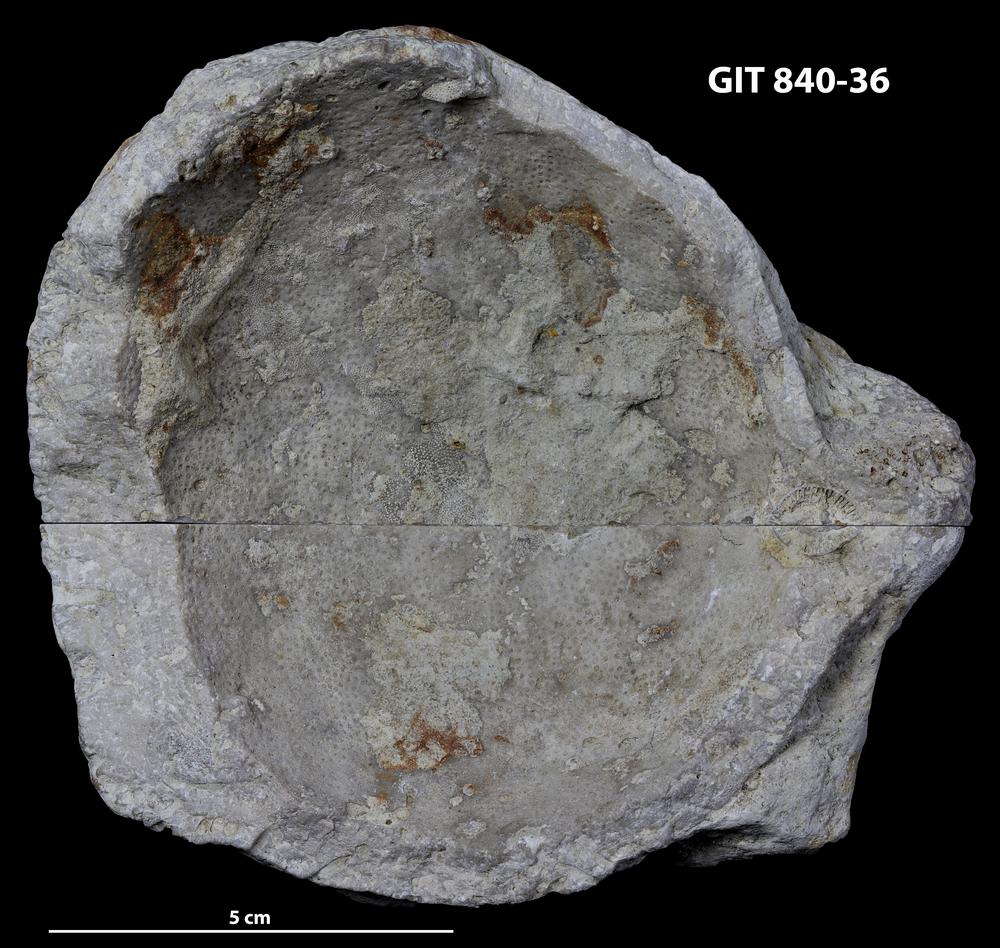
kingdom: Animalia
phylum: Cnidaria
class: Anthozoa
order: Heliolitina
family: Heliolitidae
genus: Acidolites
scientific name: Acidolites
